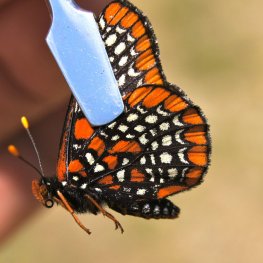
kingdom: Animalia
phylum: Arthropoda
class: Insecta
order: Lepidoptera
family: Nymphalidae
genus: Euphydryas
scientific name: Euphydryas phaeton
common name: Baltimore Checkerspot
